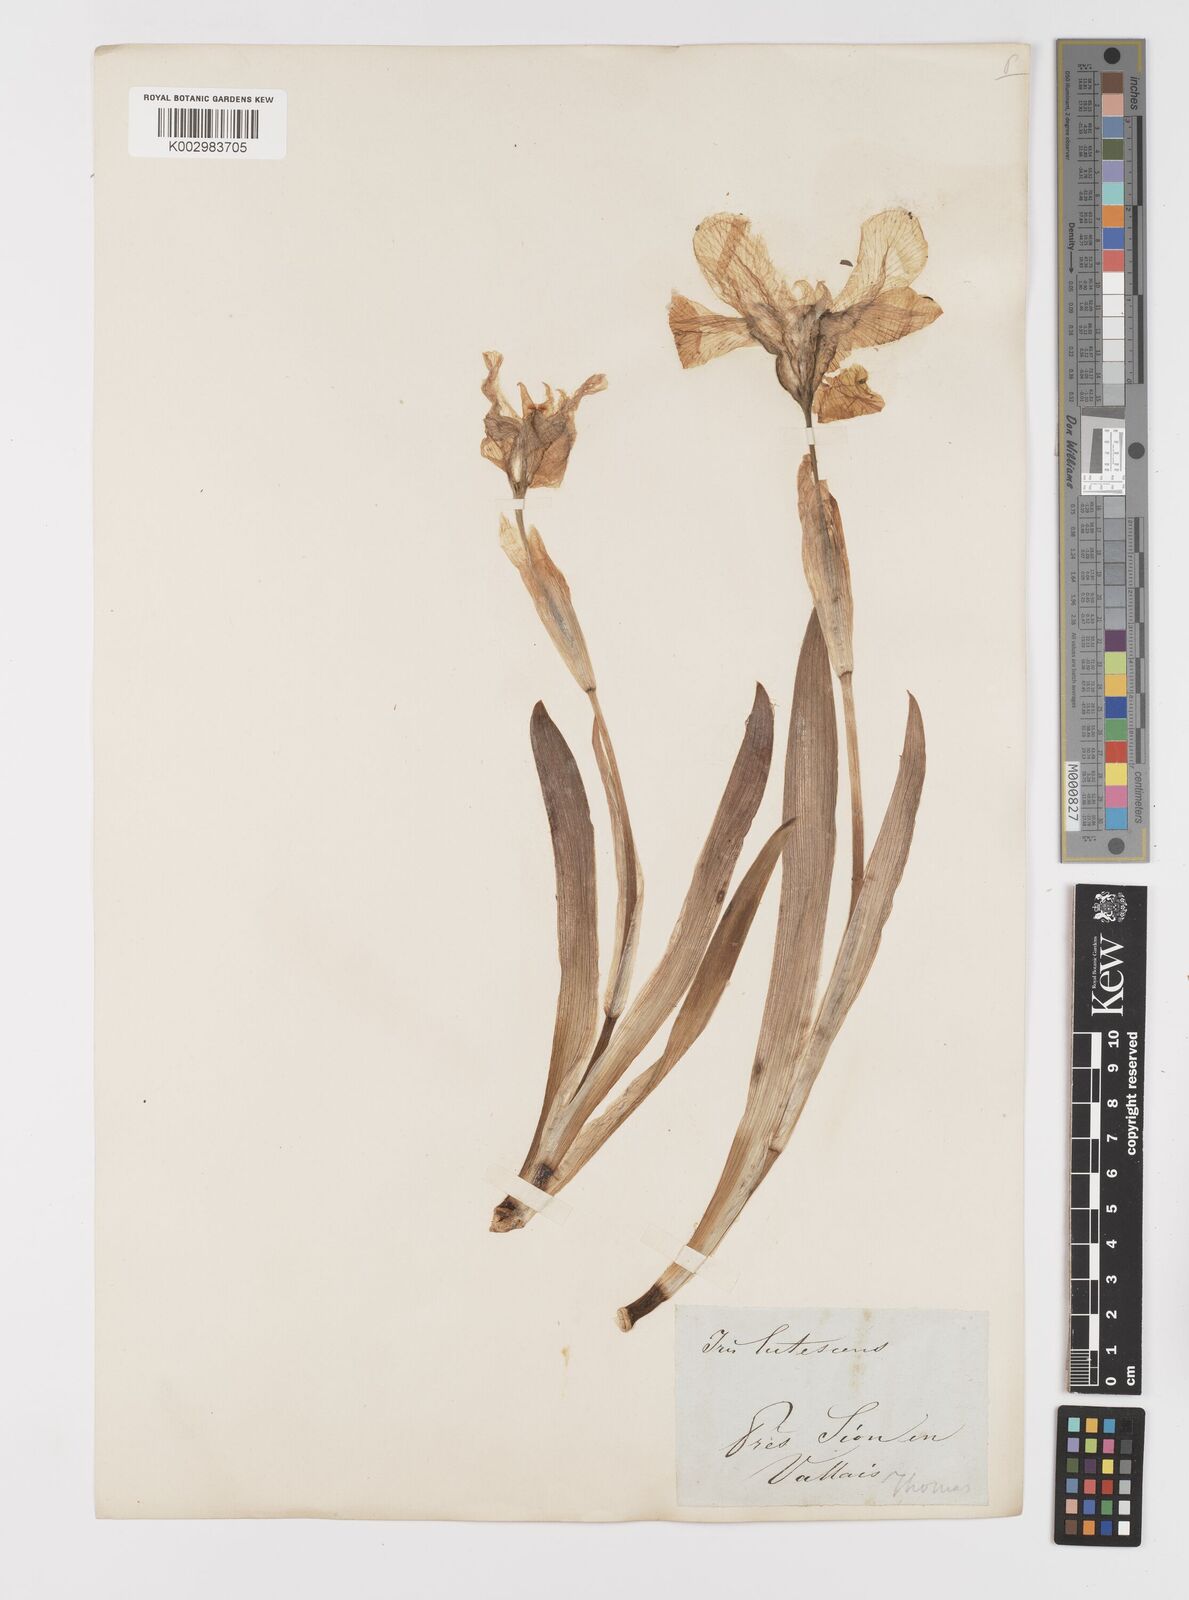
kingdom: Plantae
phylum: Tracheophyta
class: Liliopsida
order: Asparagales
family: Iridaceae
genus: Iris
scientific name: Iris lutescens
